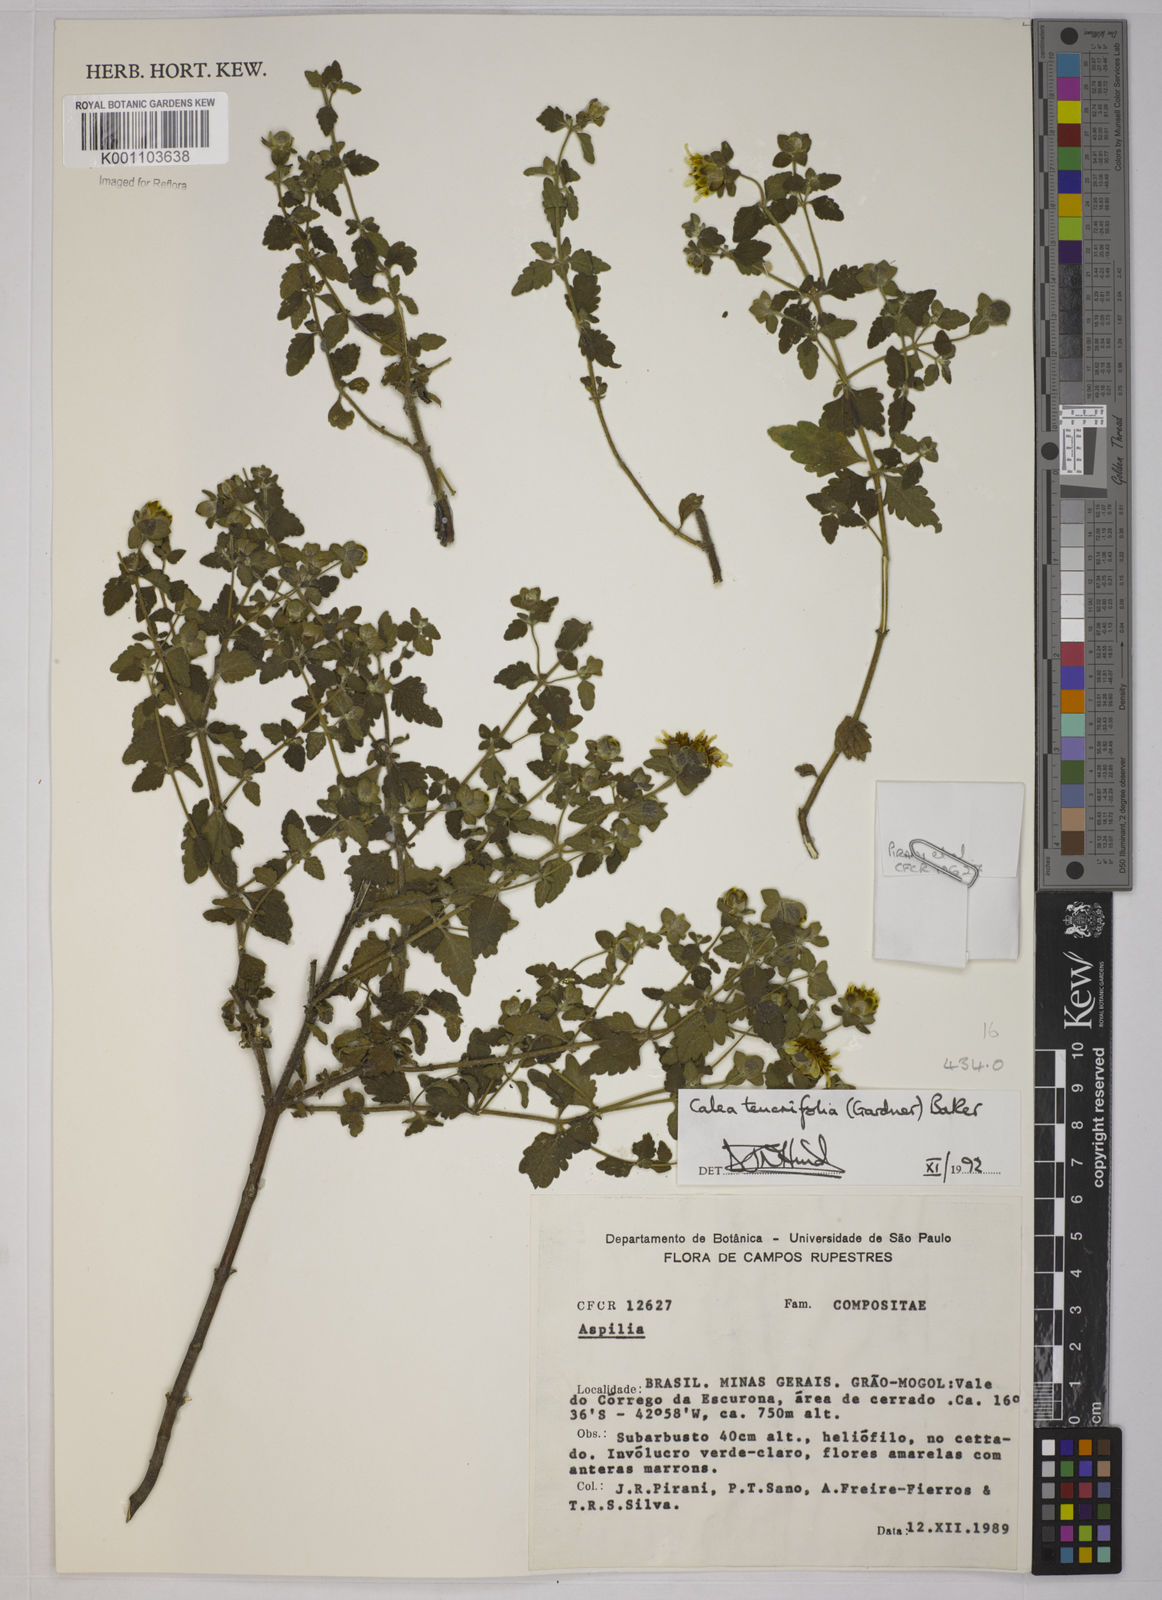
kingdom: Plantae
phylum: Tracheophyta
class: Magnoliopsida
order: Asterales
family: Asteraceae
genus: Calea
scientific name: Calea teucriifolia
